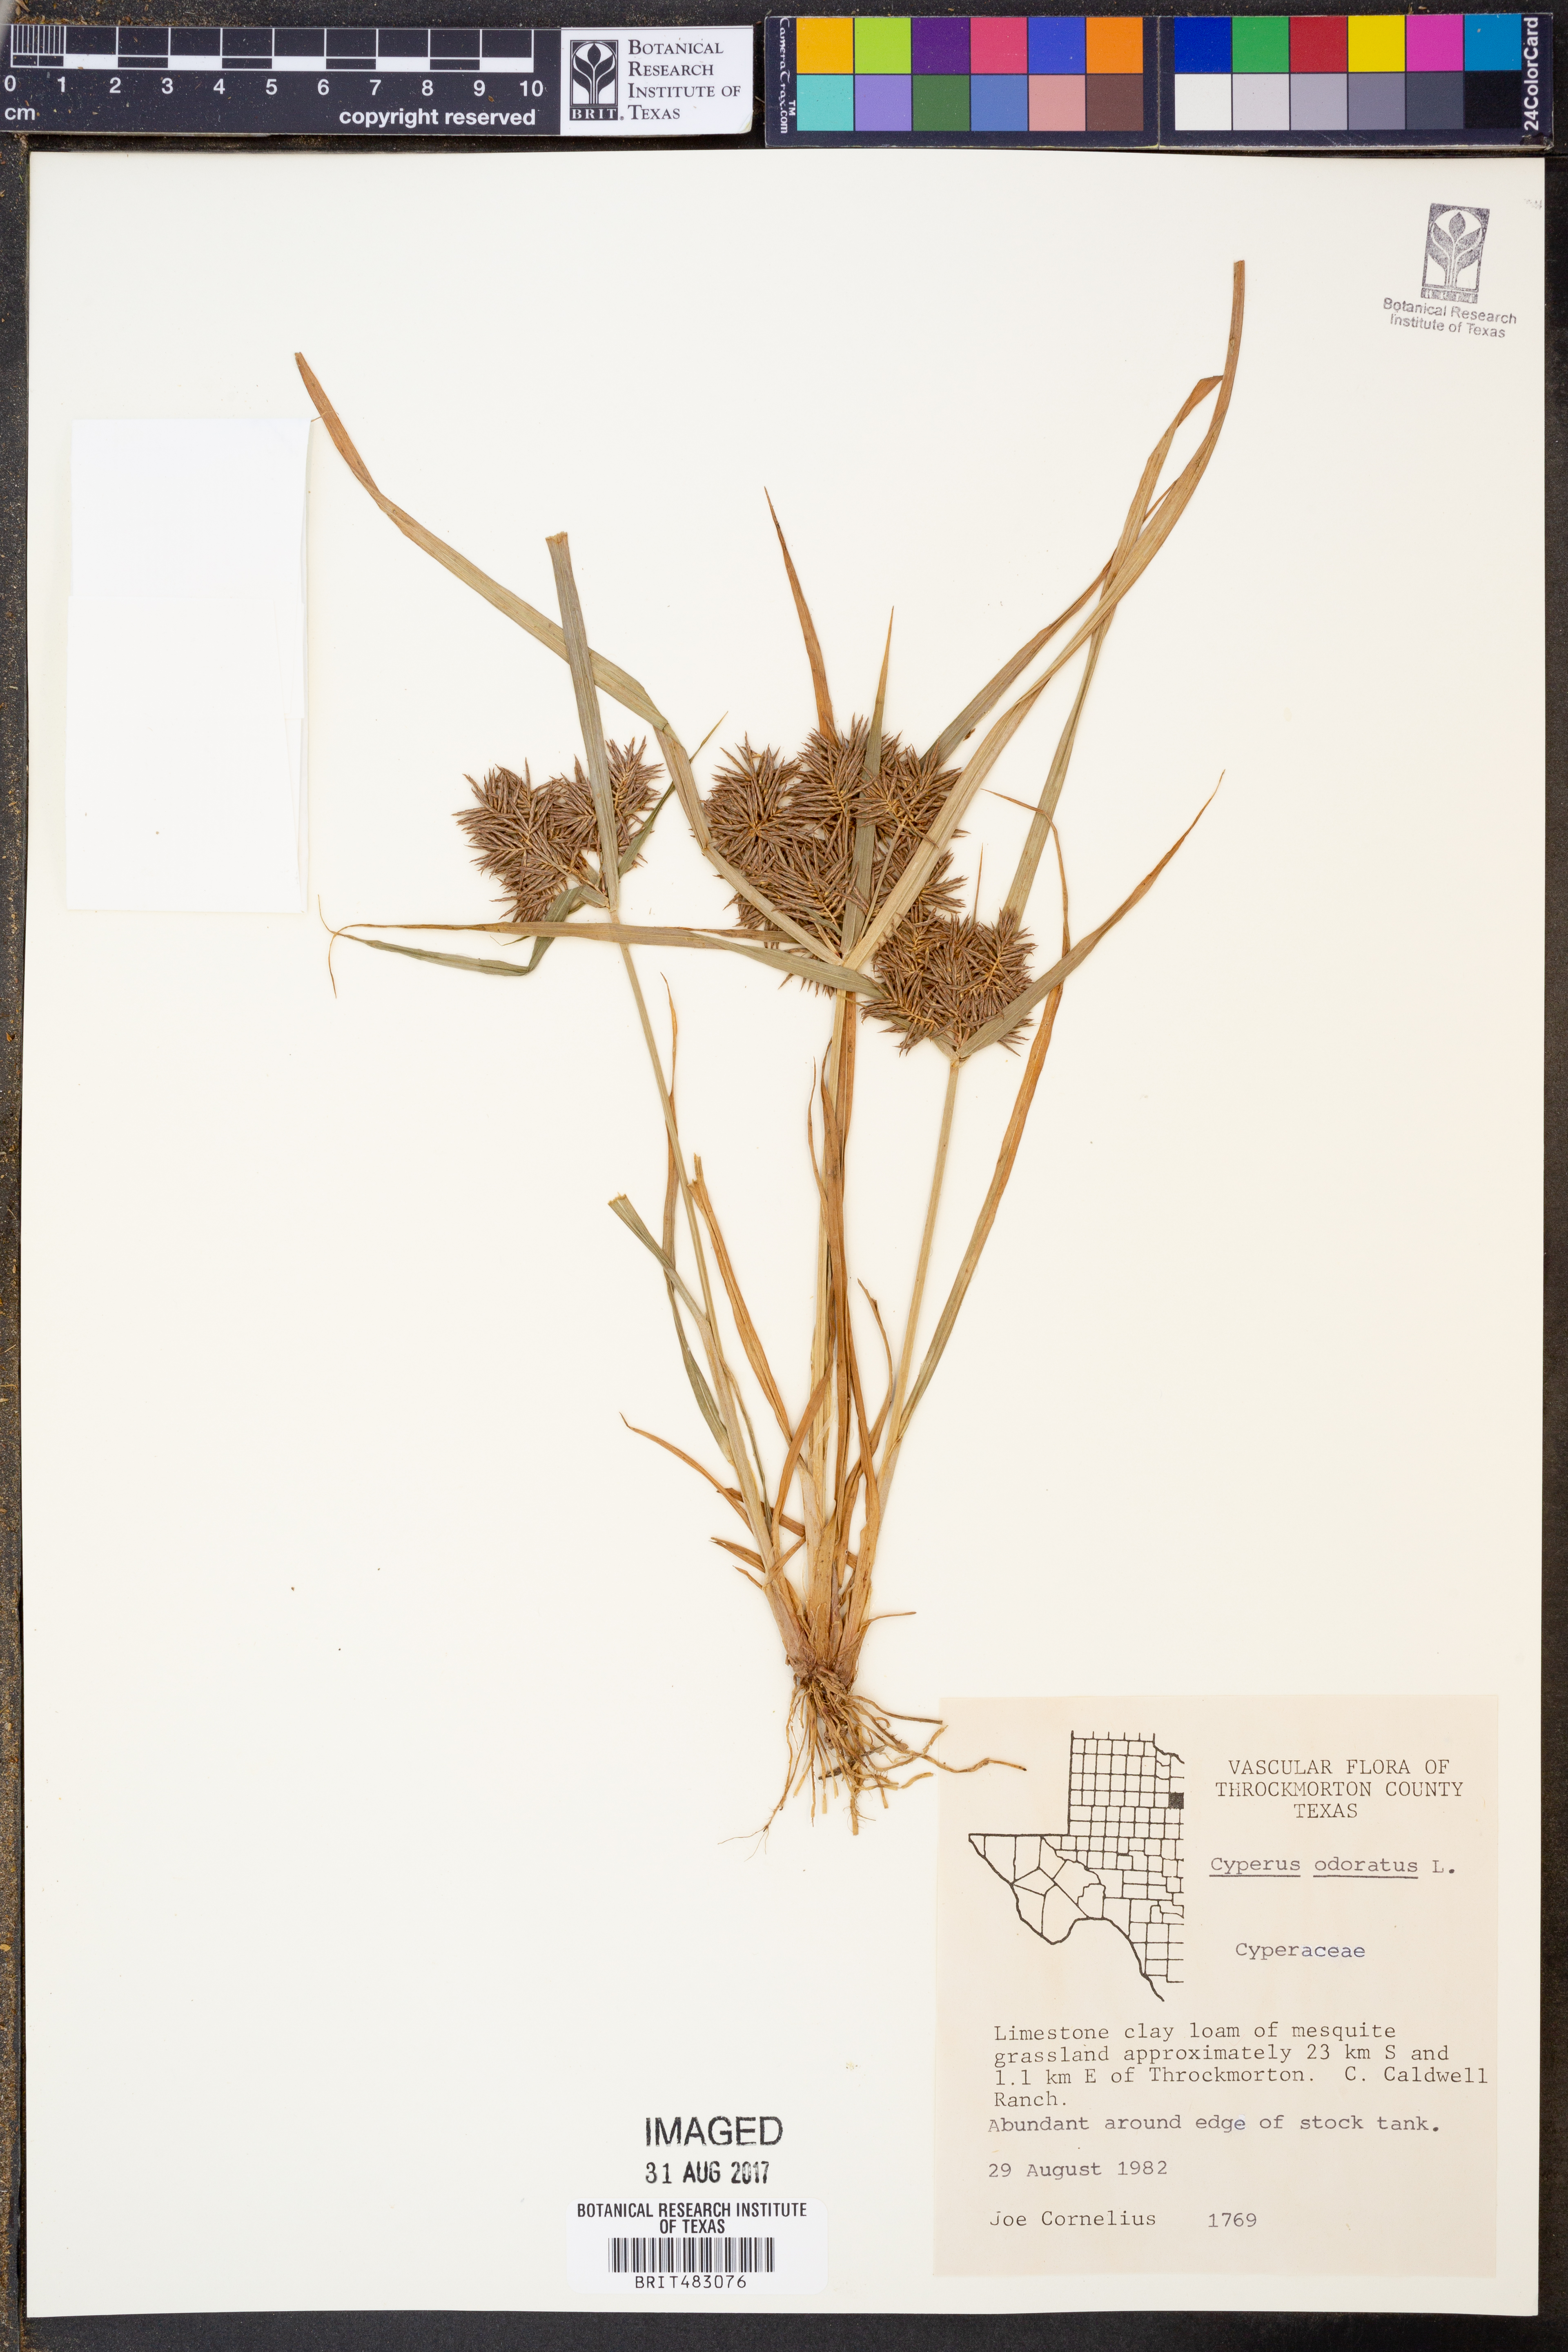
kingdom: Plantae
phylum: Tracheophyta
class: Liliopsida
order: Poales
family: Cyperaceae
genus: Cyperus
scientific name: Cyperus odoratus
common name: Fragrant flatsedge
